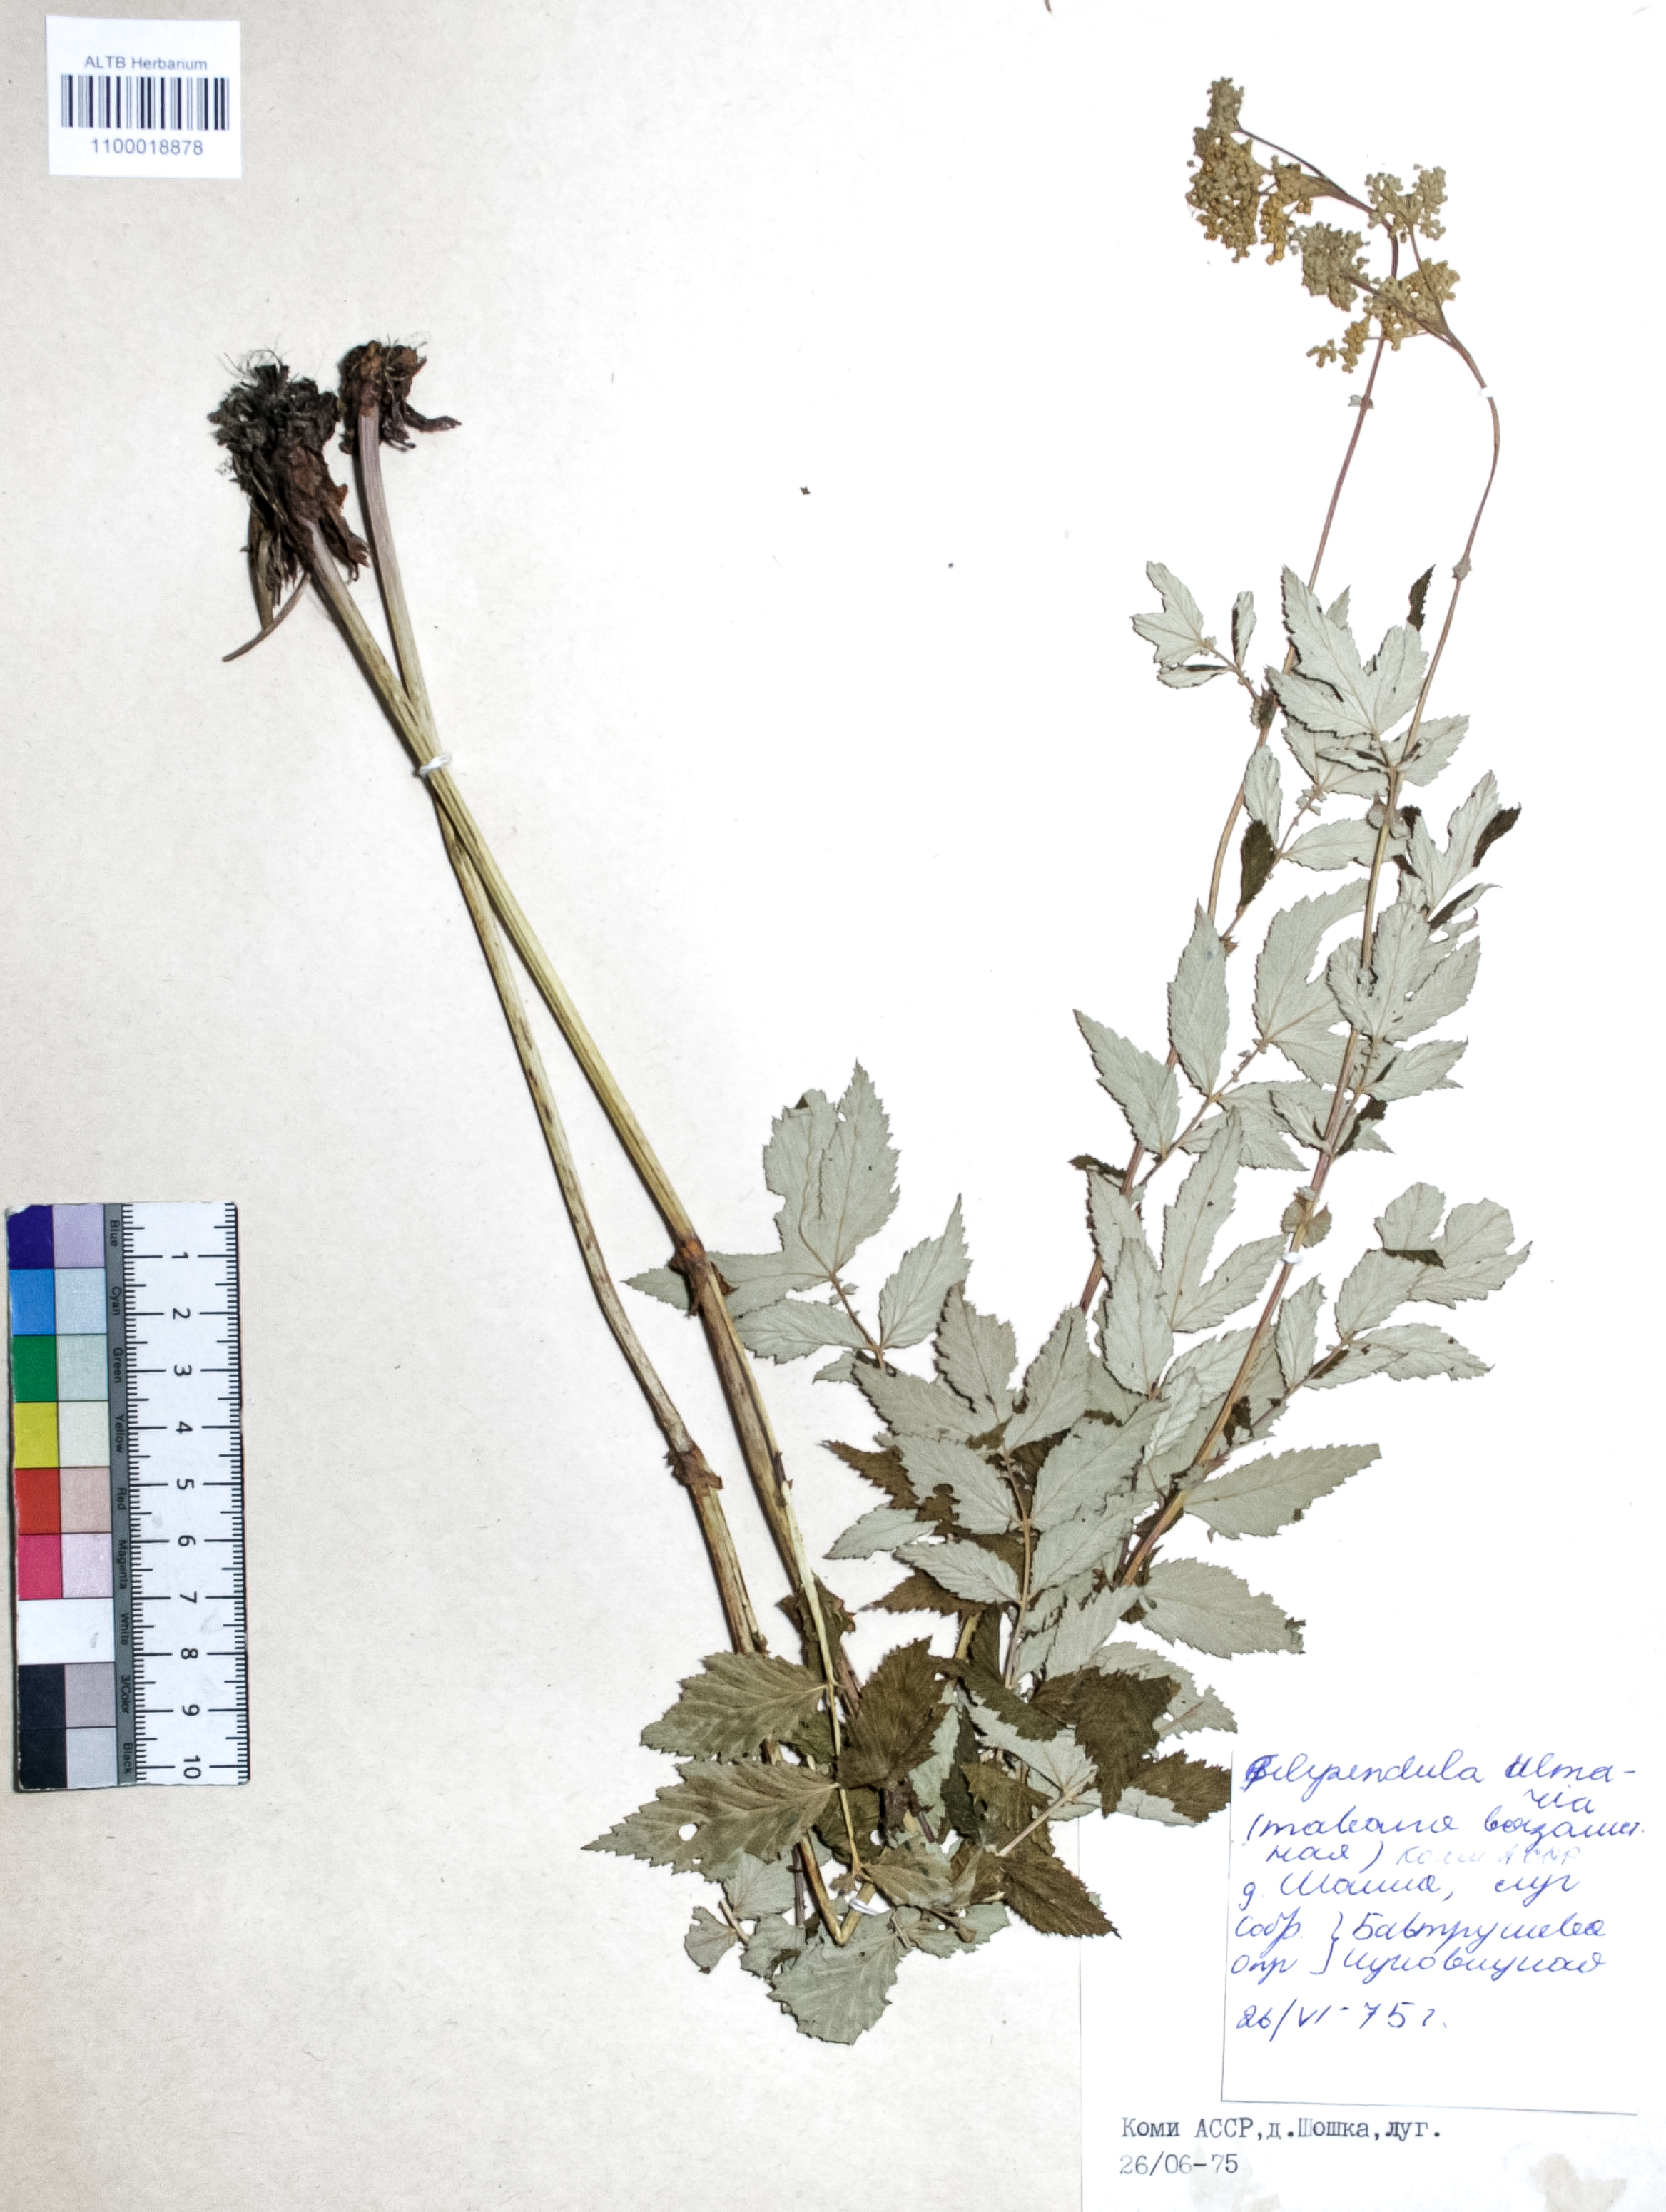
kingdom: Plantae
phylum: Tracheophyta
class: Magnoliopsida
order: Rosales
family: Rosaceae
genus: Filipendula
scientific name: Filipendula ulmaria
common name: Meadowsweet
